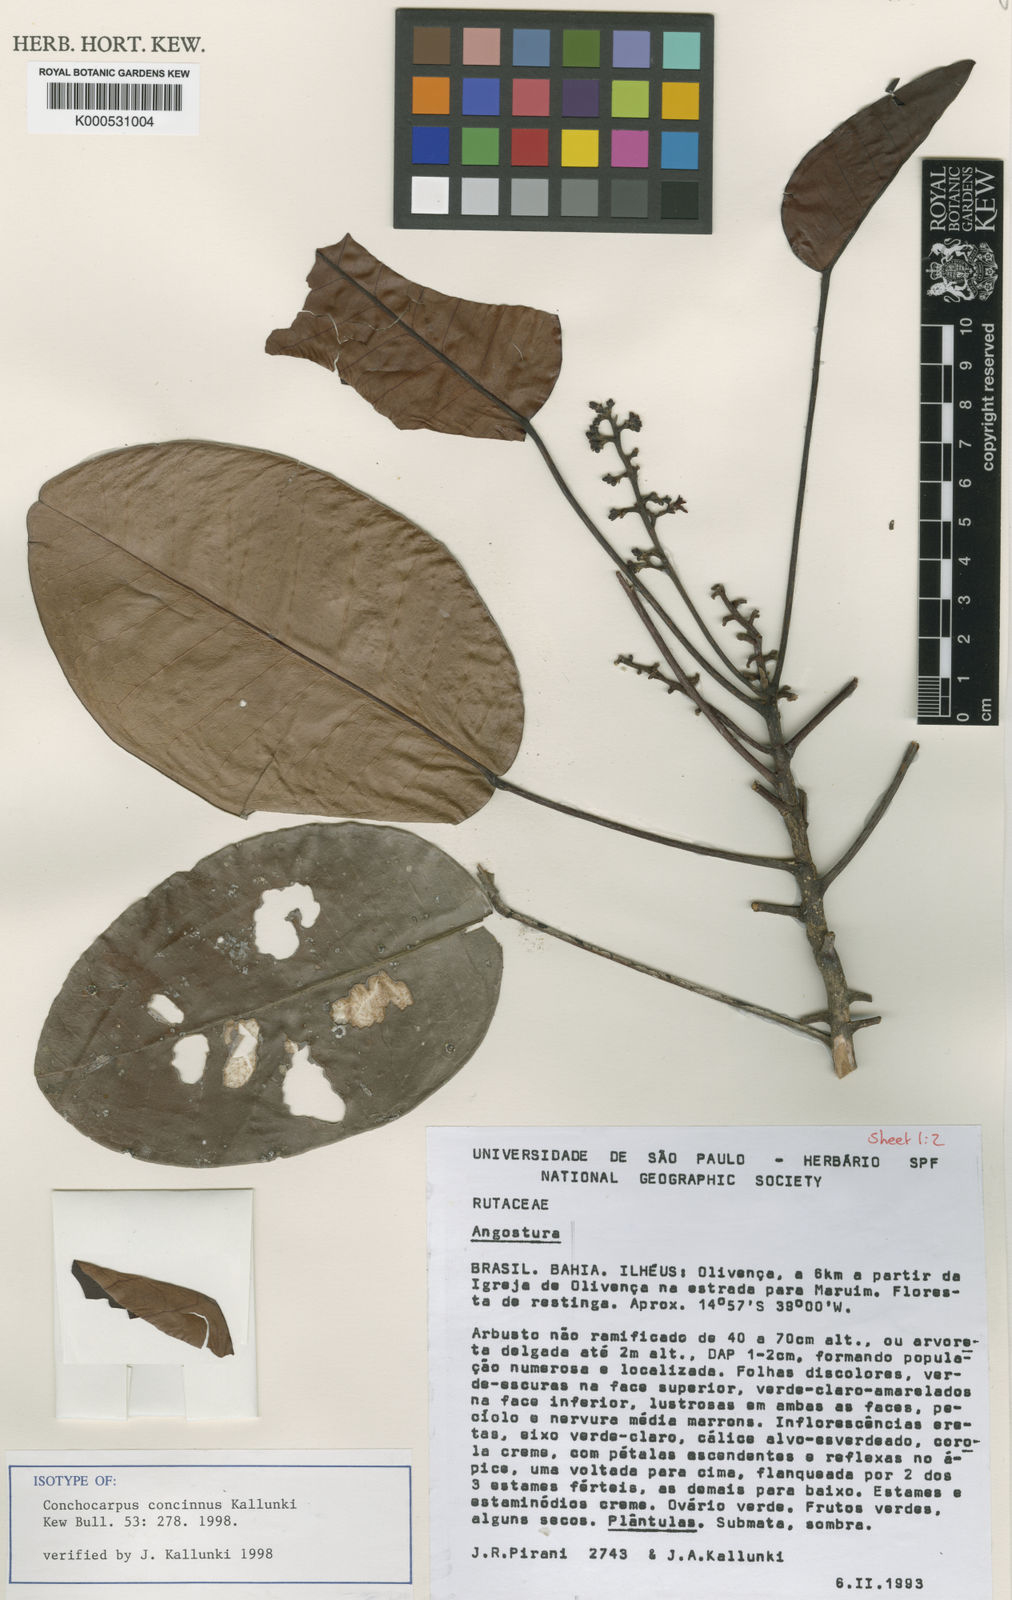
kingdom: Plantae
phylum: Tracheophyta
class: Magnoliopsida
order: Sapindales
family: Rutaceae
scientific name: Rutaceae
